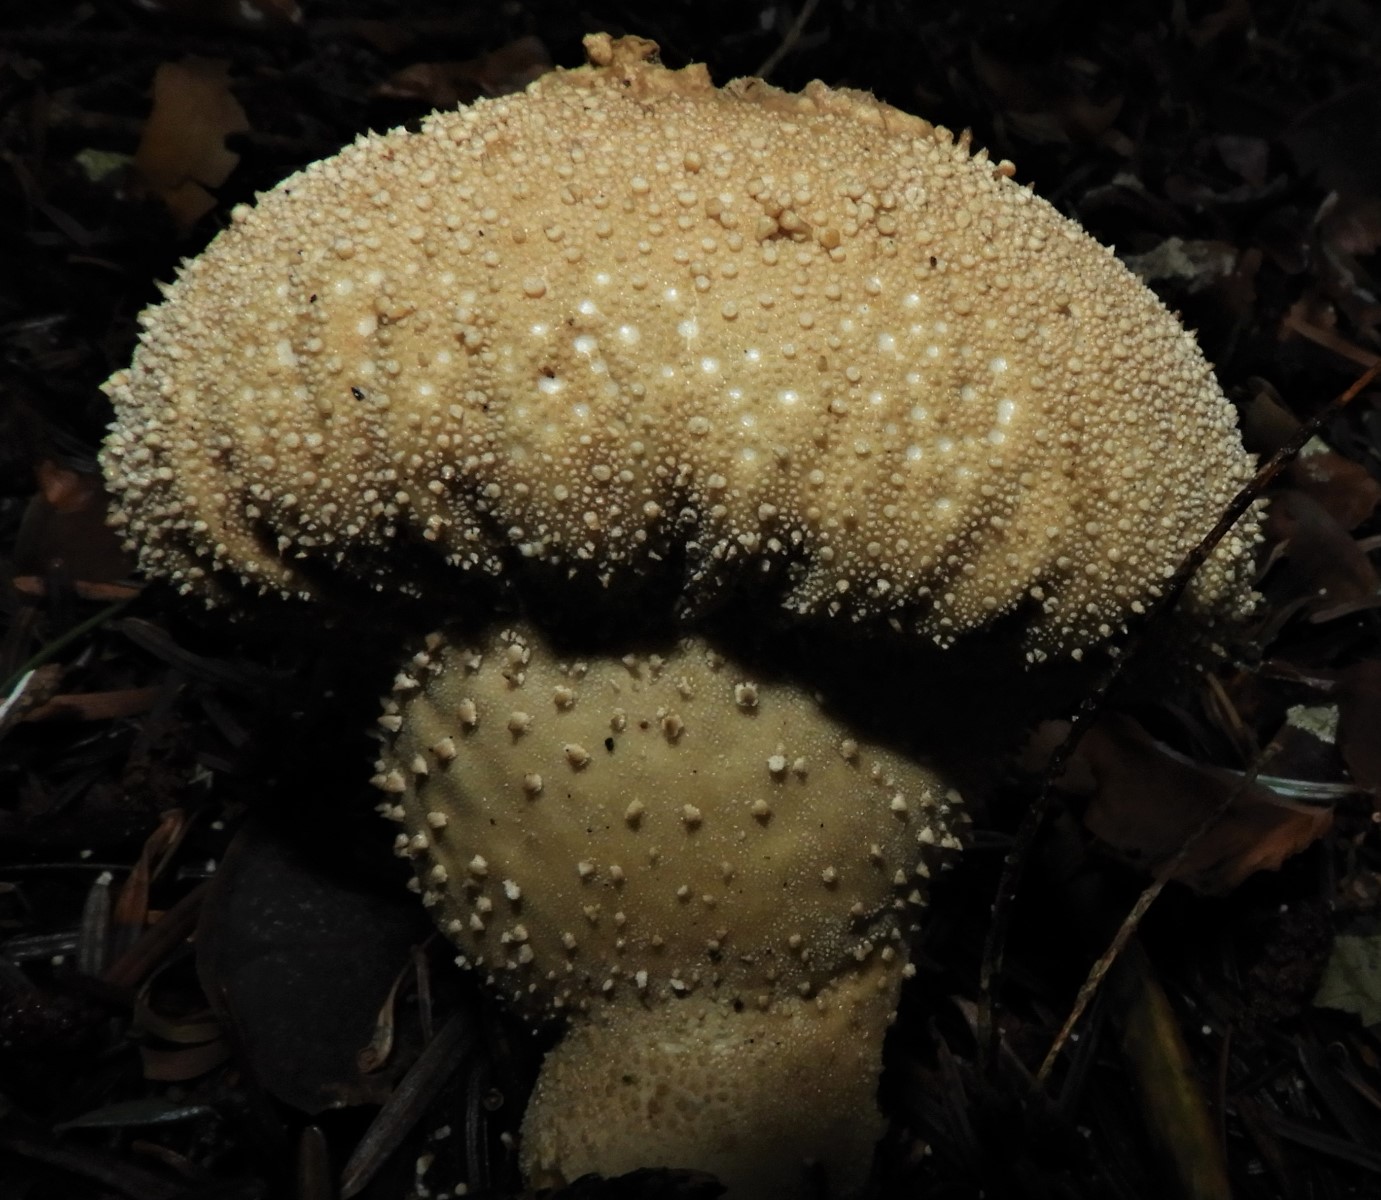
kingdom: Fungi
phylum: Basidiomycota
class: Agaricomycetes
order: Agaricales
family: Lycoperdaceae
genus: Lycoperdon
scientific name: Lycoperdon perlatum
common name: krystal-støvbold
